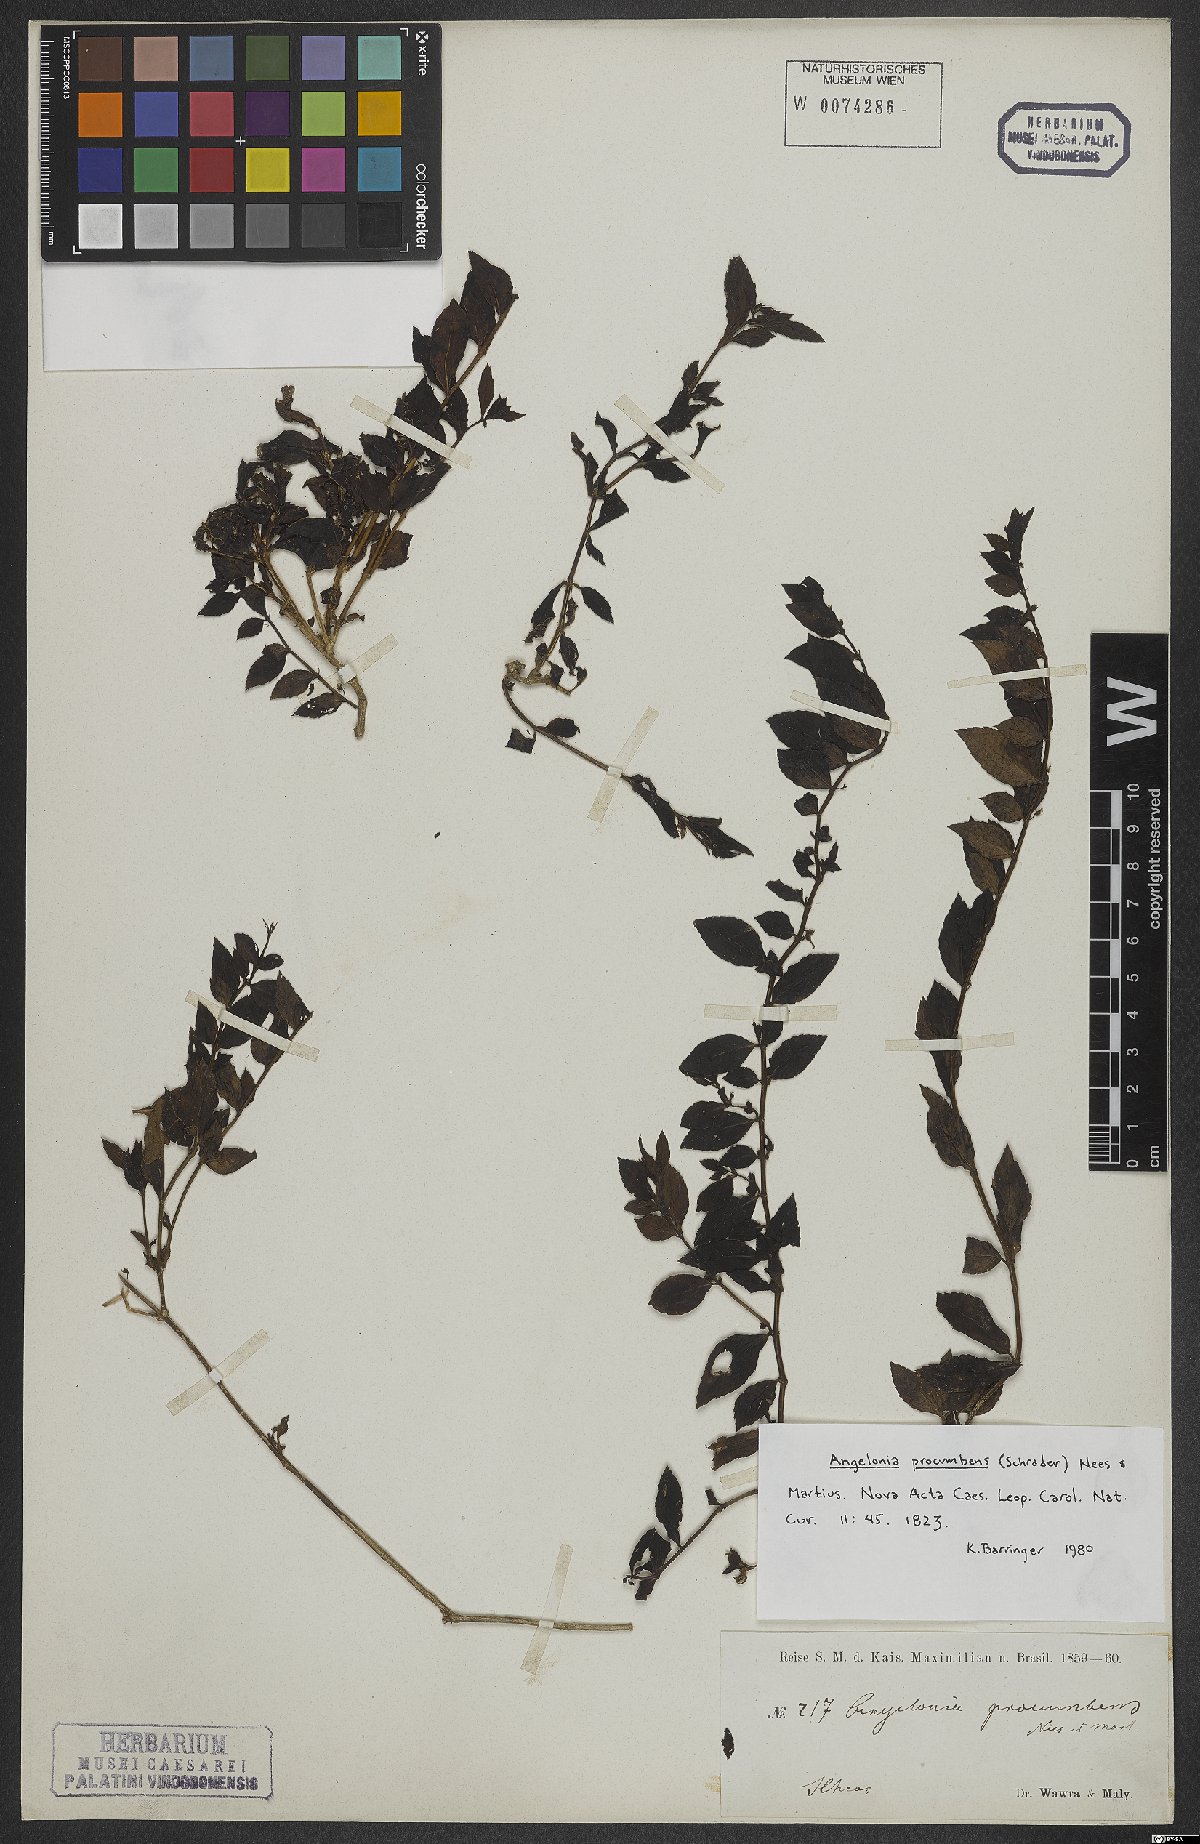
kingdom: Plantae
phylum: Tracheophyta
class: Magnoliopsida
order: Lamiales
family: Plantaginaceae
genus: Angelonia
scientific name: Angelonia procumbens
